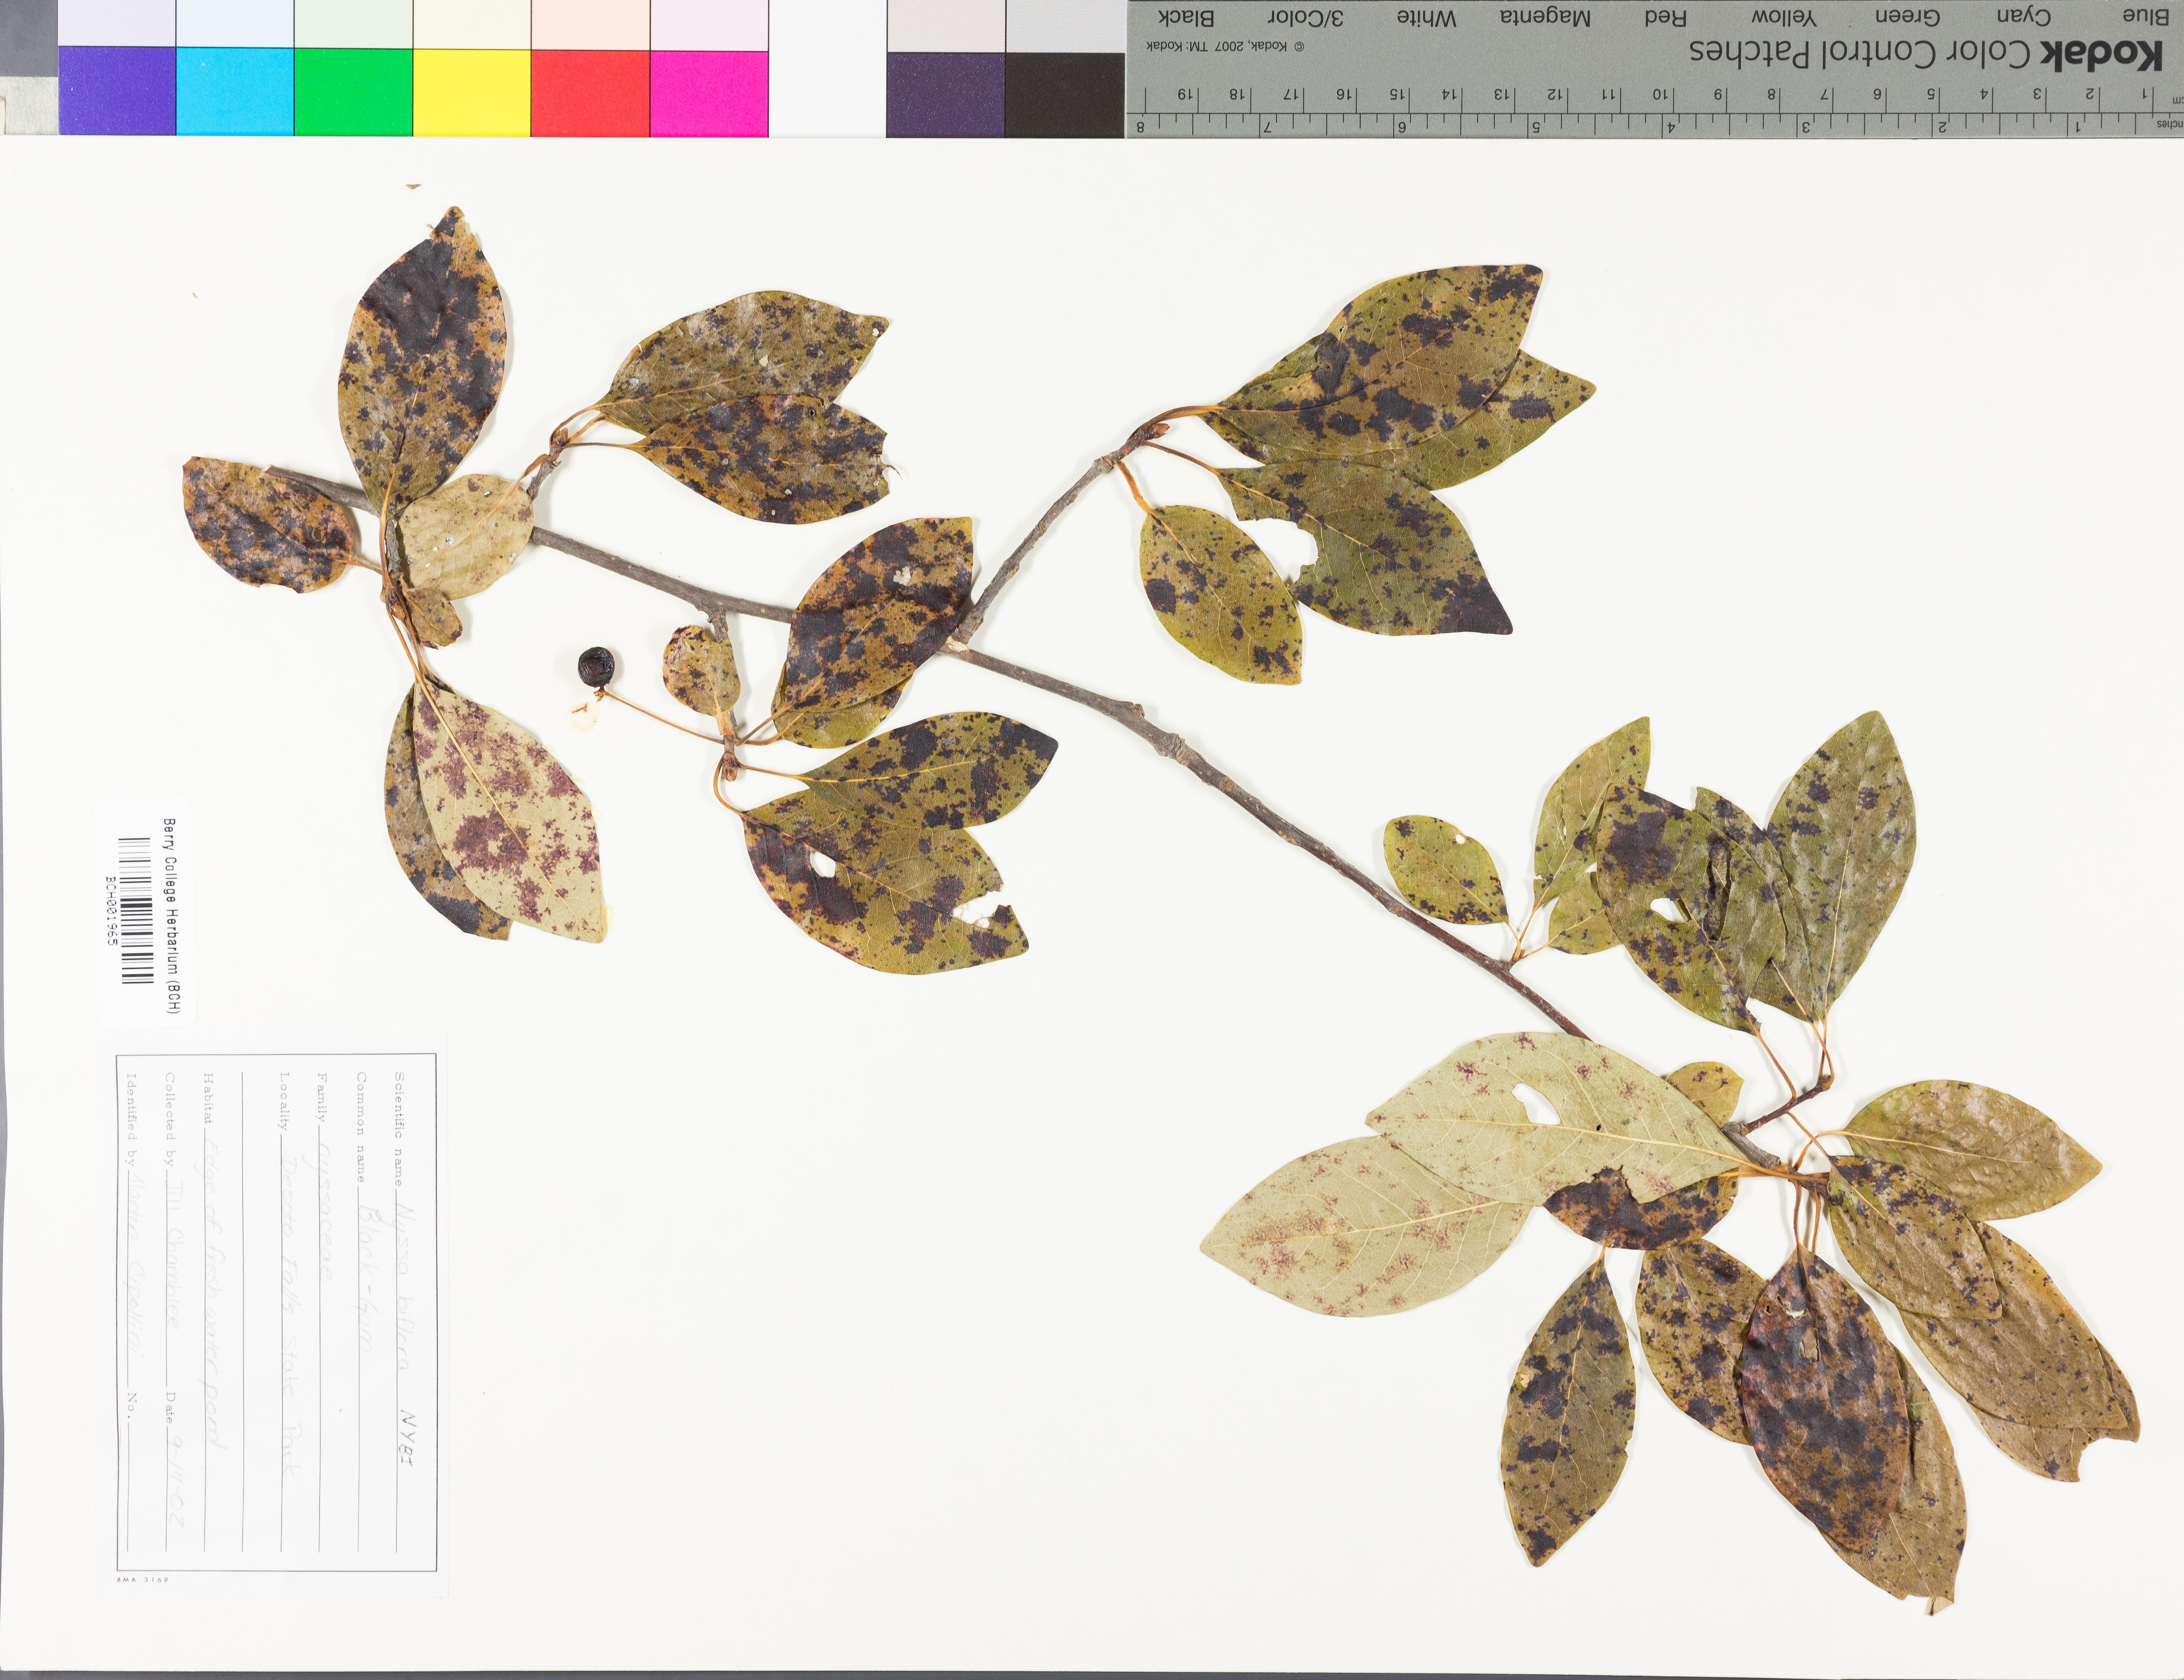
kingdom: Plantae
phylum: Tracheophyta
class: Magnoliopsida
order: Cornales
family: Nyssaceae
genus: Nyssa
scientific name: Nyssa biflora
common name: Swamp blackgum
